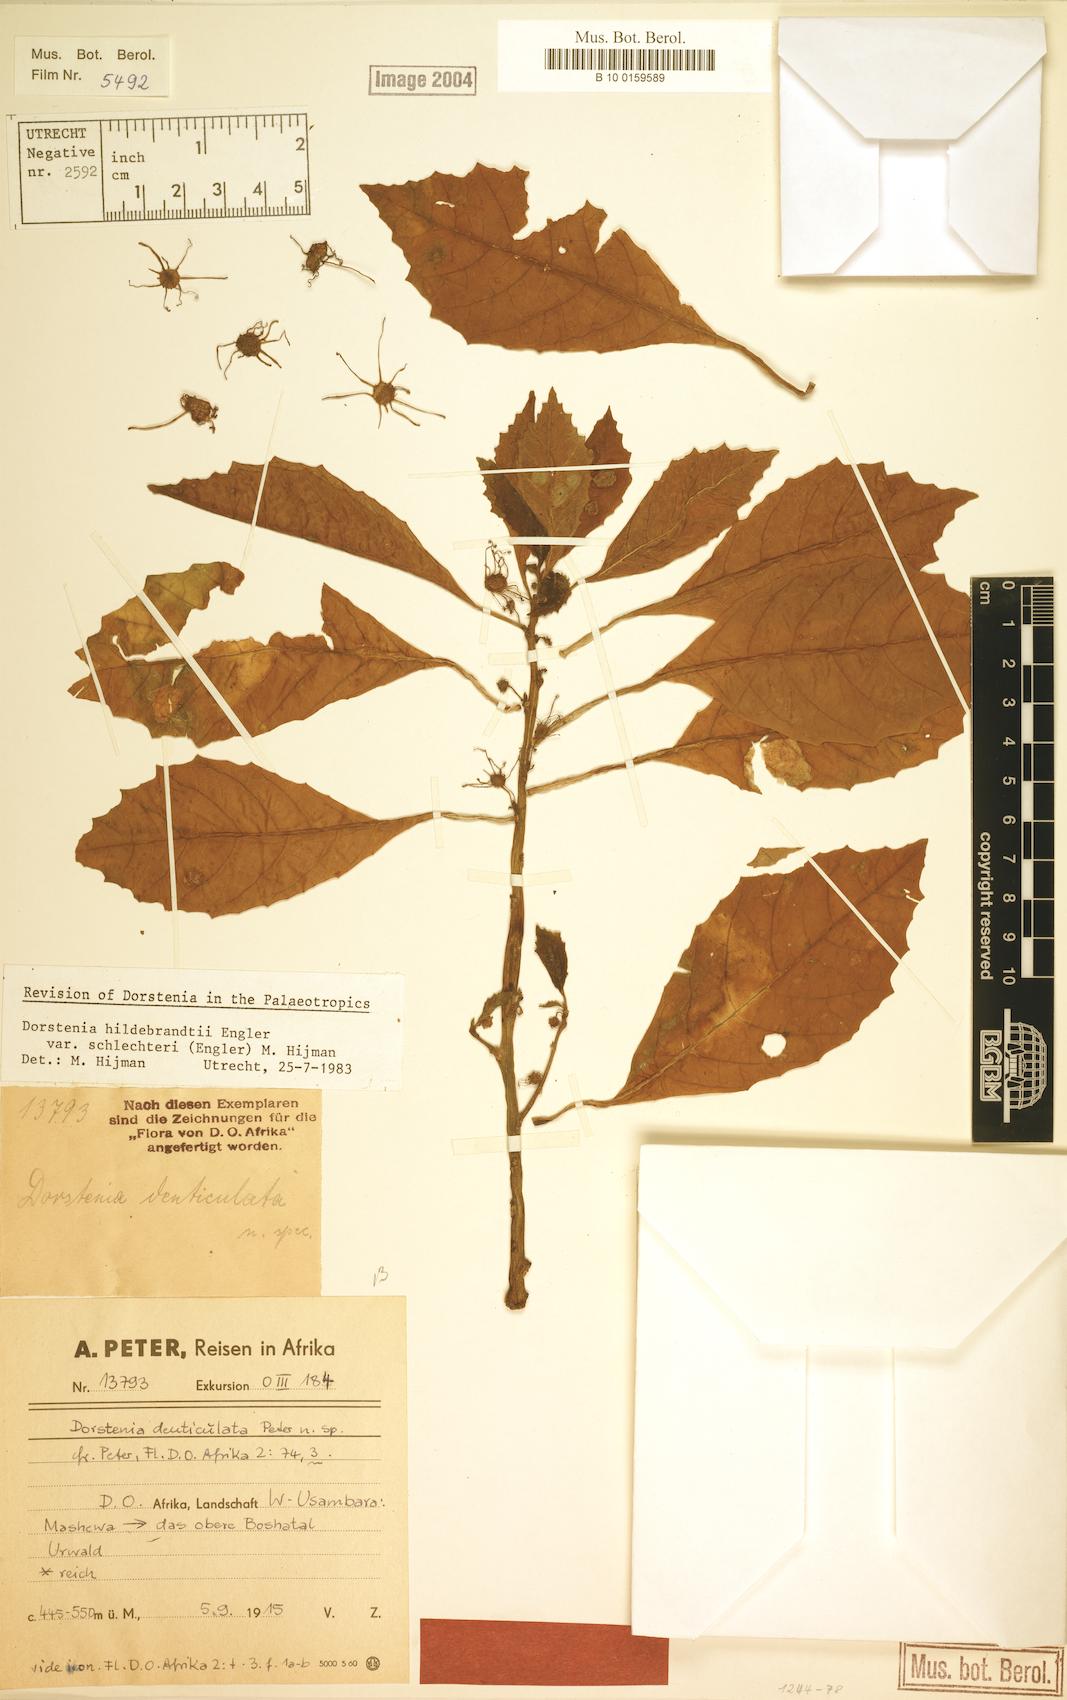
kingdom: Plantae
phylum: Tracheophyta
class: Magnoliopsida
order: Rosales
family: Moraceae
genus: Dorstenia
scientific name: Dorstenia hildebrandtii
